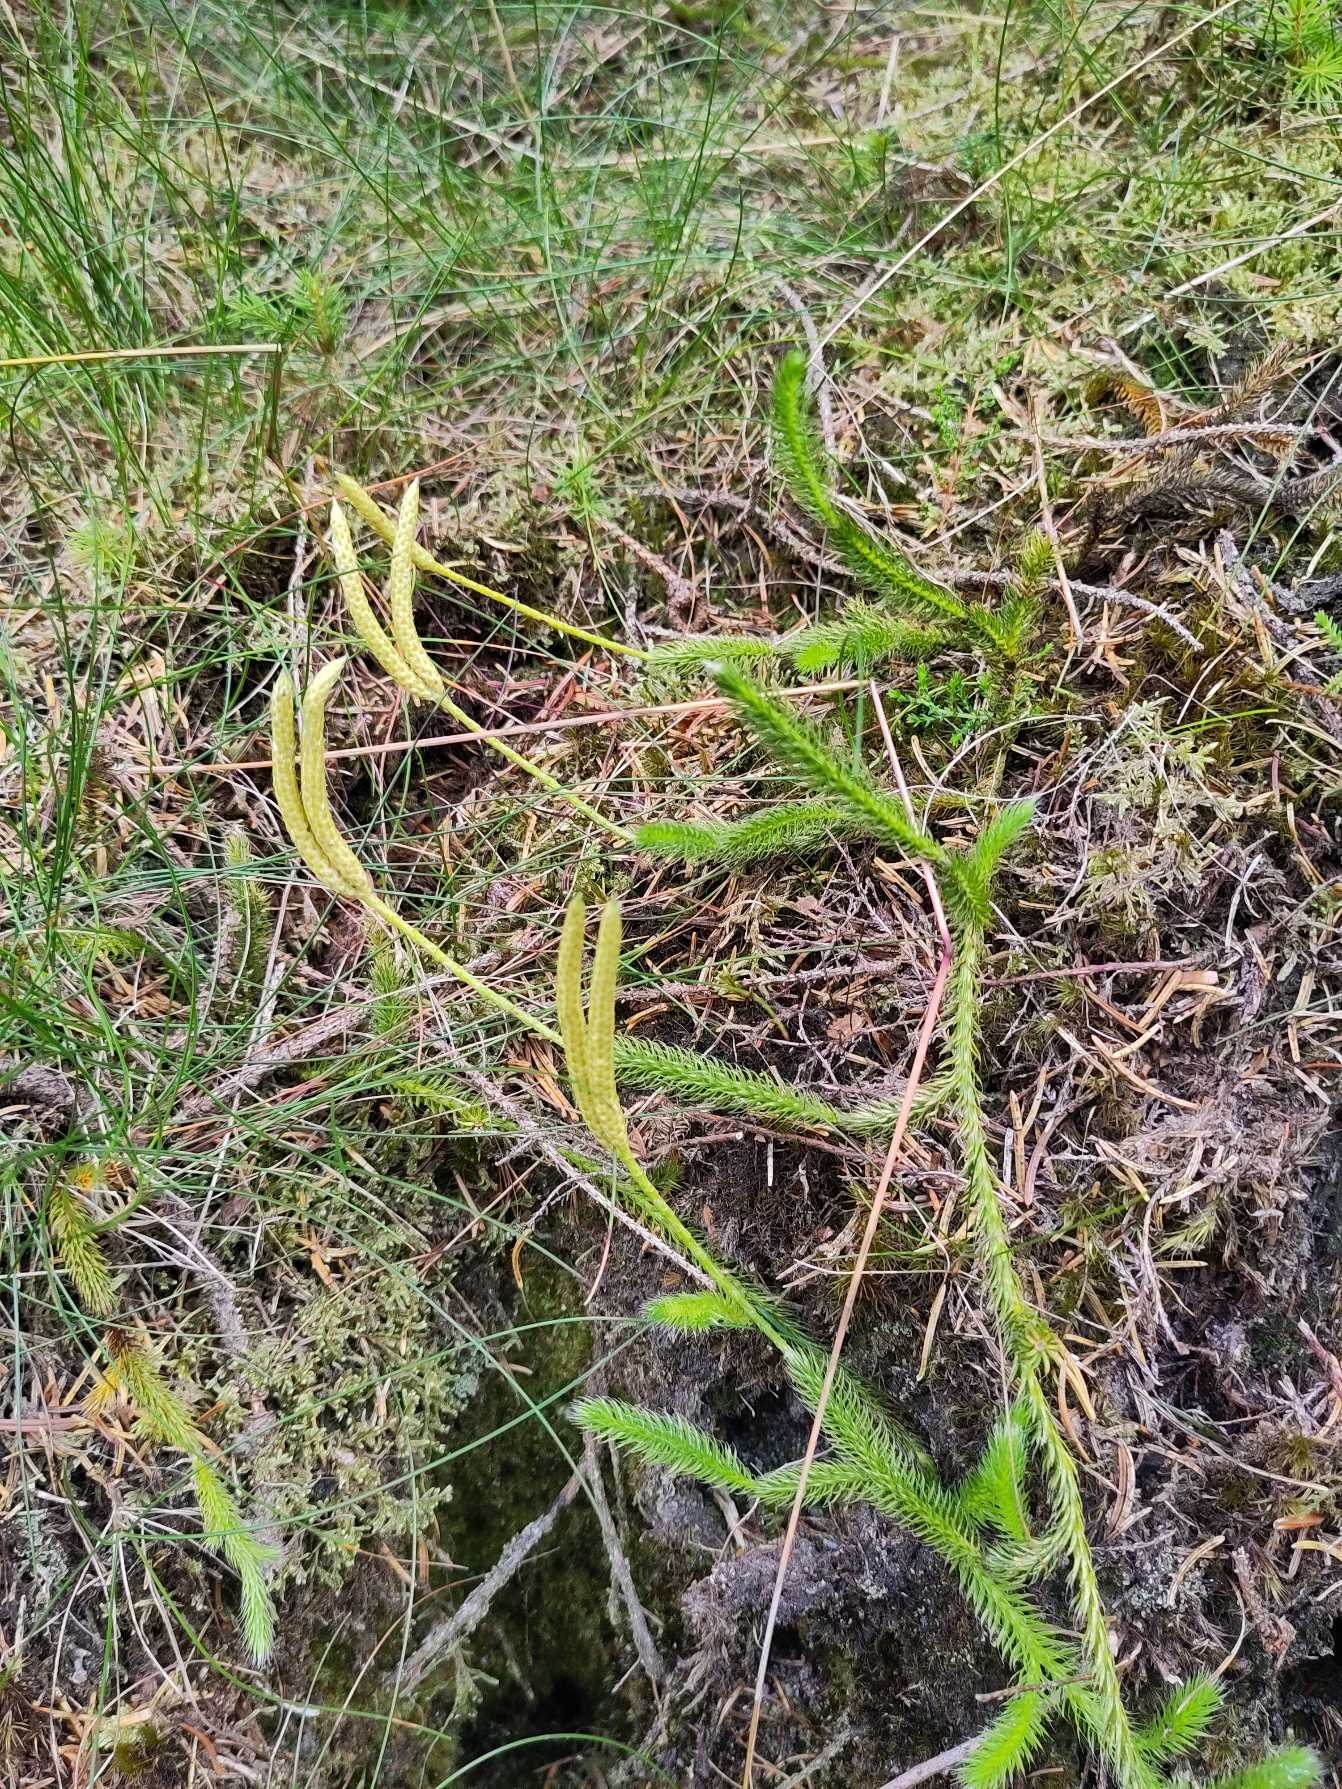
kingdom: Plantae
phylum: Tracheophyta
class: Lycopodiopsida
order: Lycopodiales
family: Lycopodiaceae
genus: Lycopodium
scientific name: Lycopodium clavatum
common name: Almindelig ulvefod
